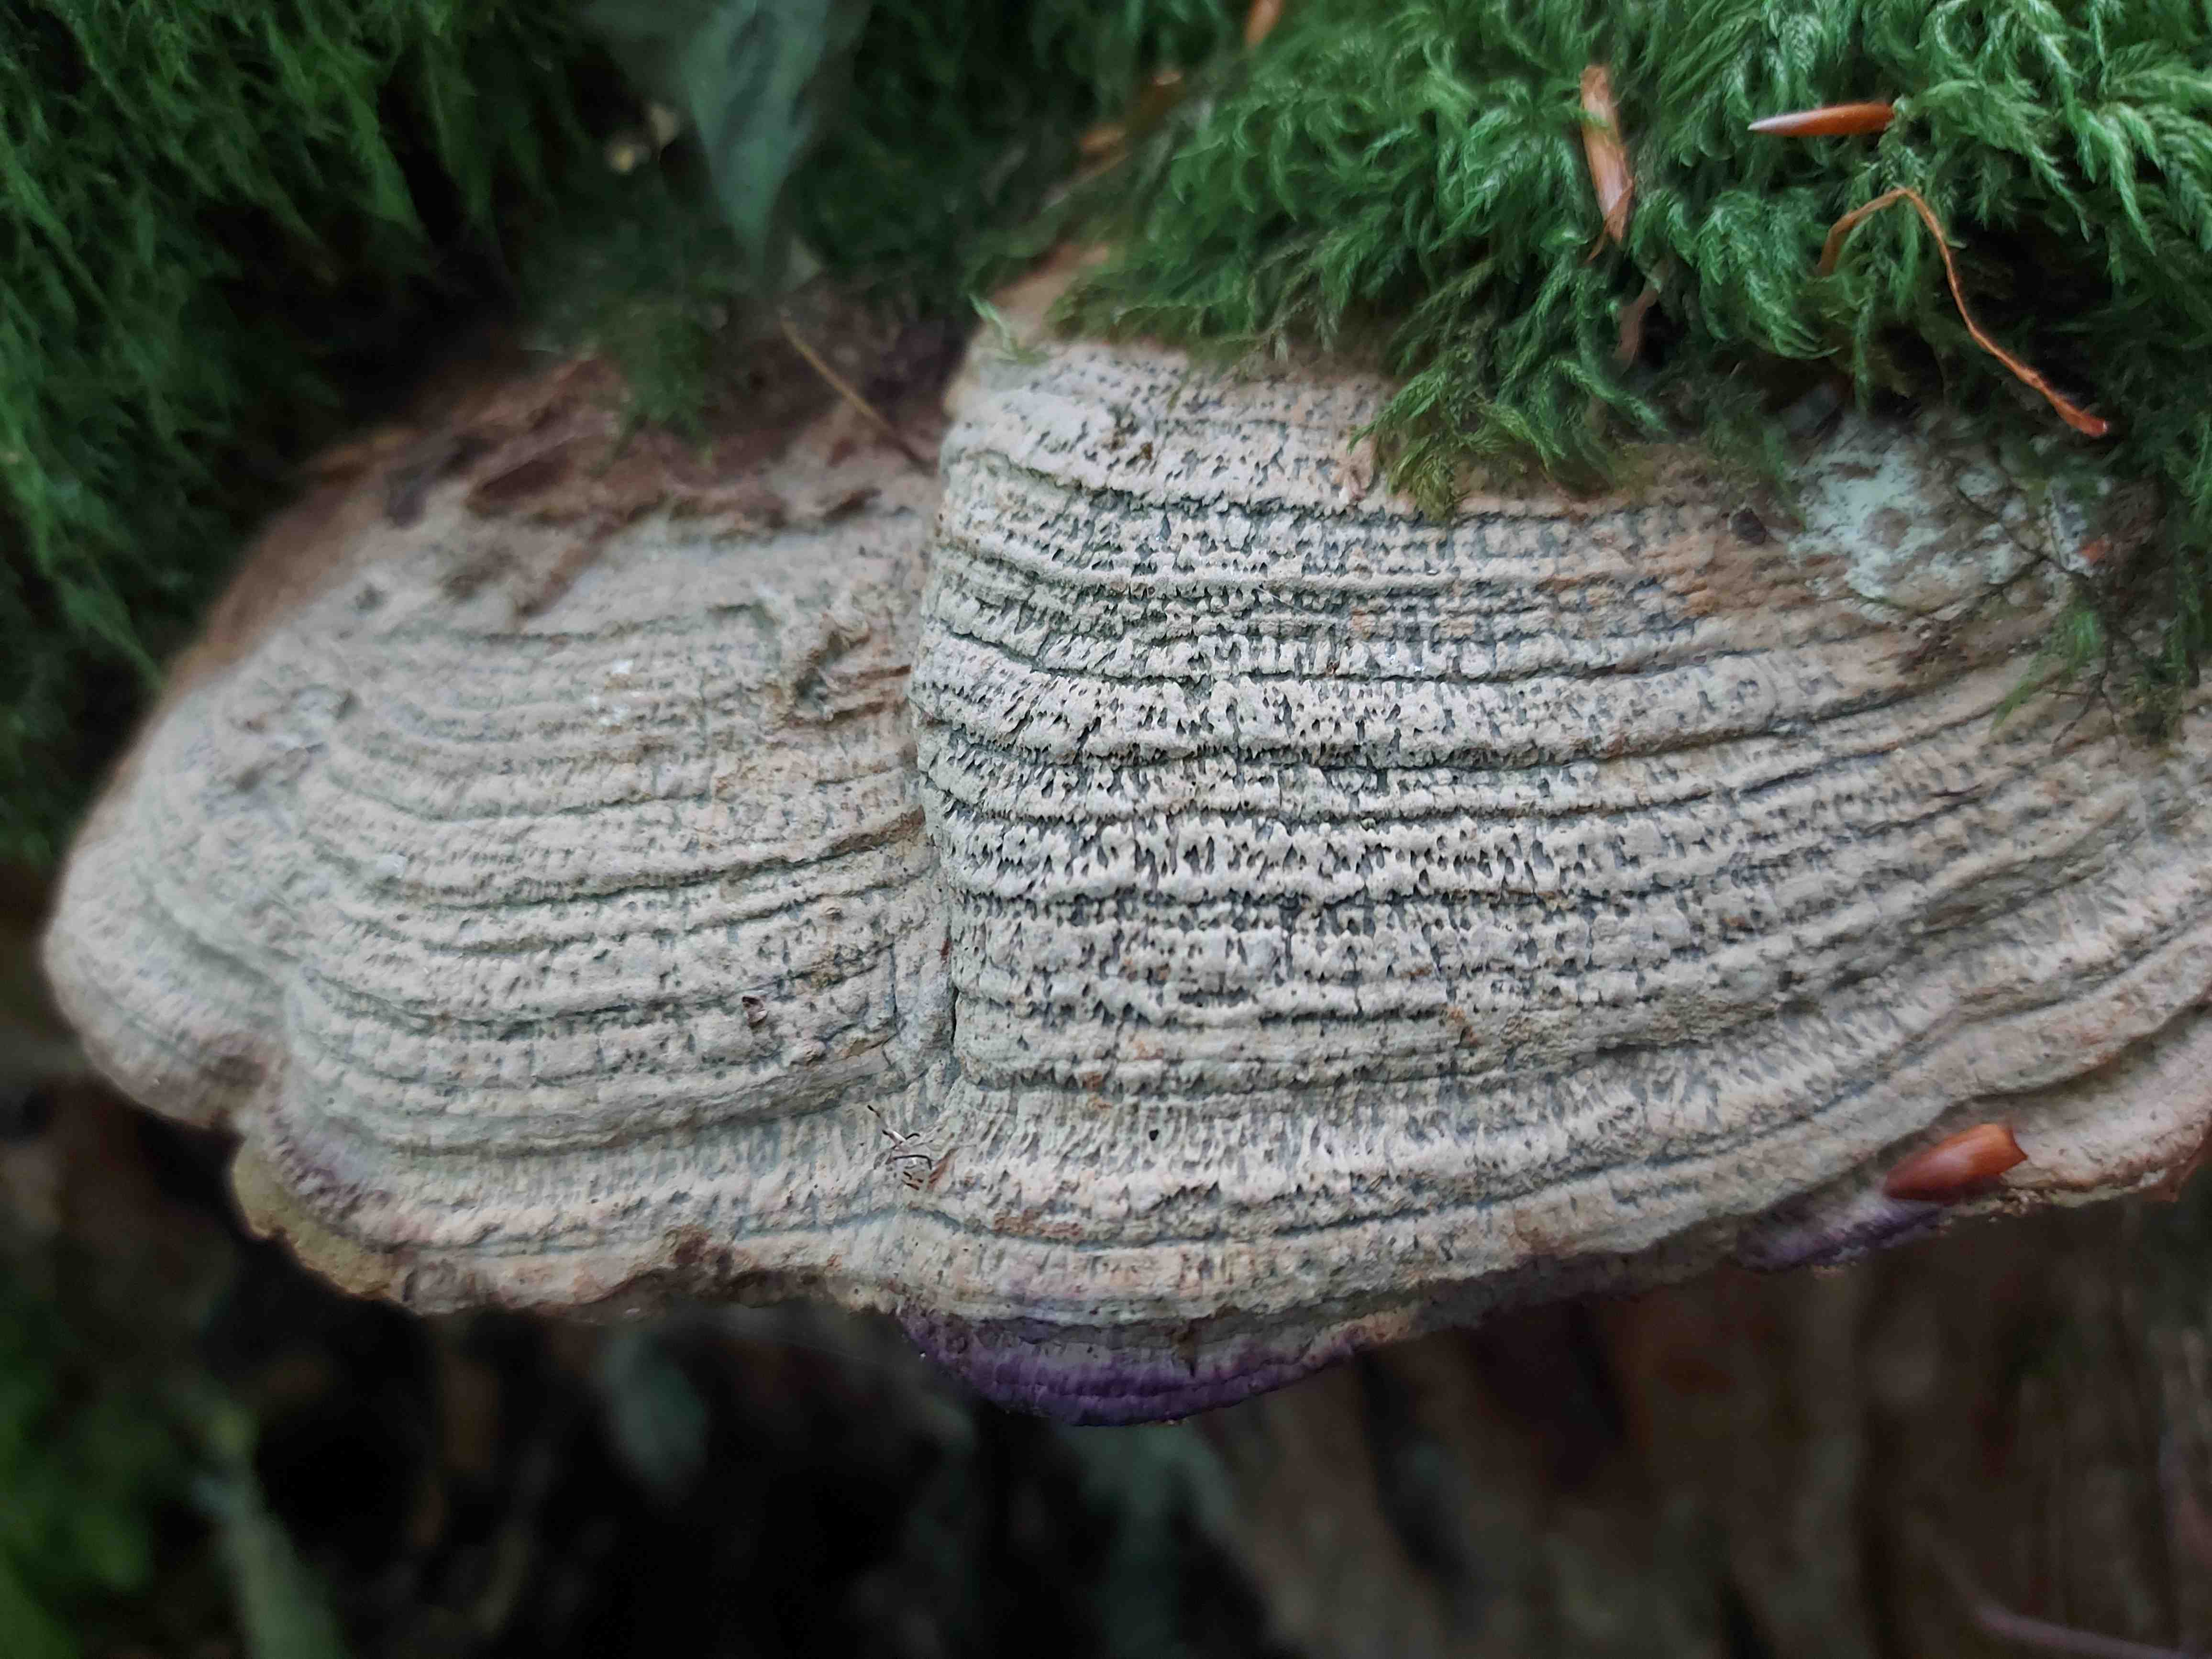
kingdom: Fungi
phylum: Basidiomycota
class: Agaricomycetes
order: Polyporales
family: Fomitopsidaceae
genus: Daedalea
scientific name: Daedalea quercina
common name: ege-labyrintsvamp
